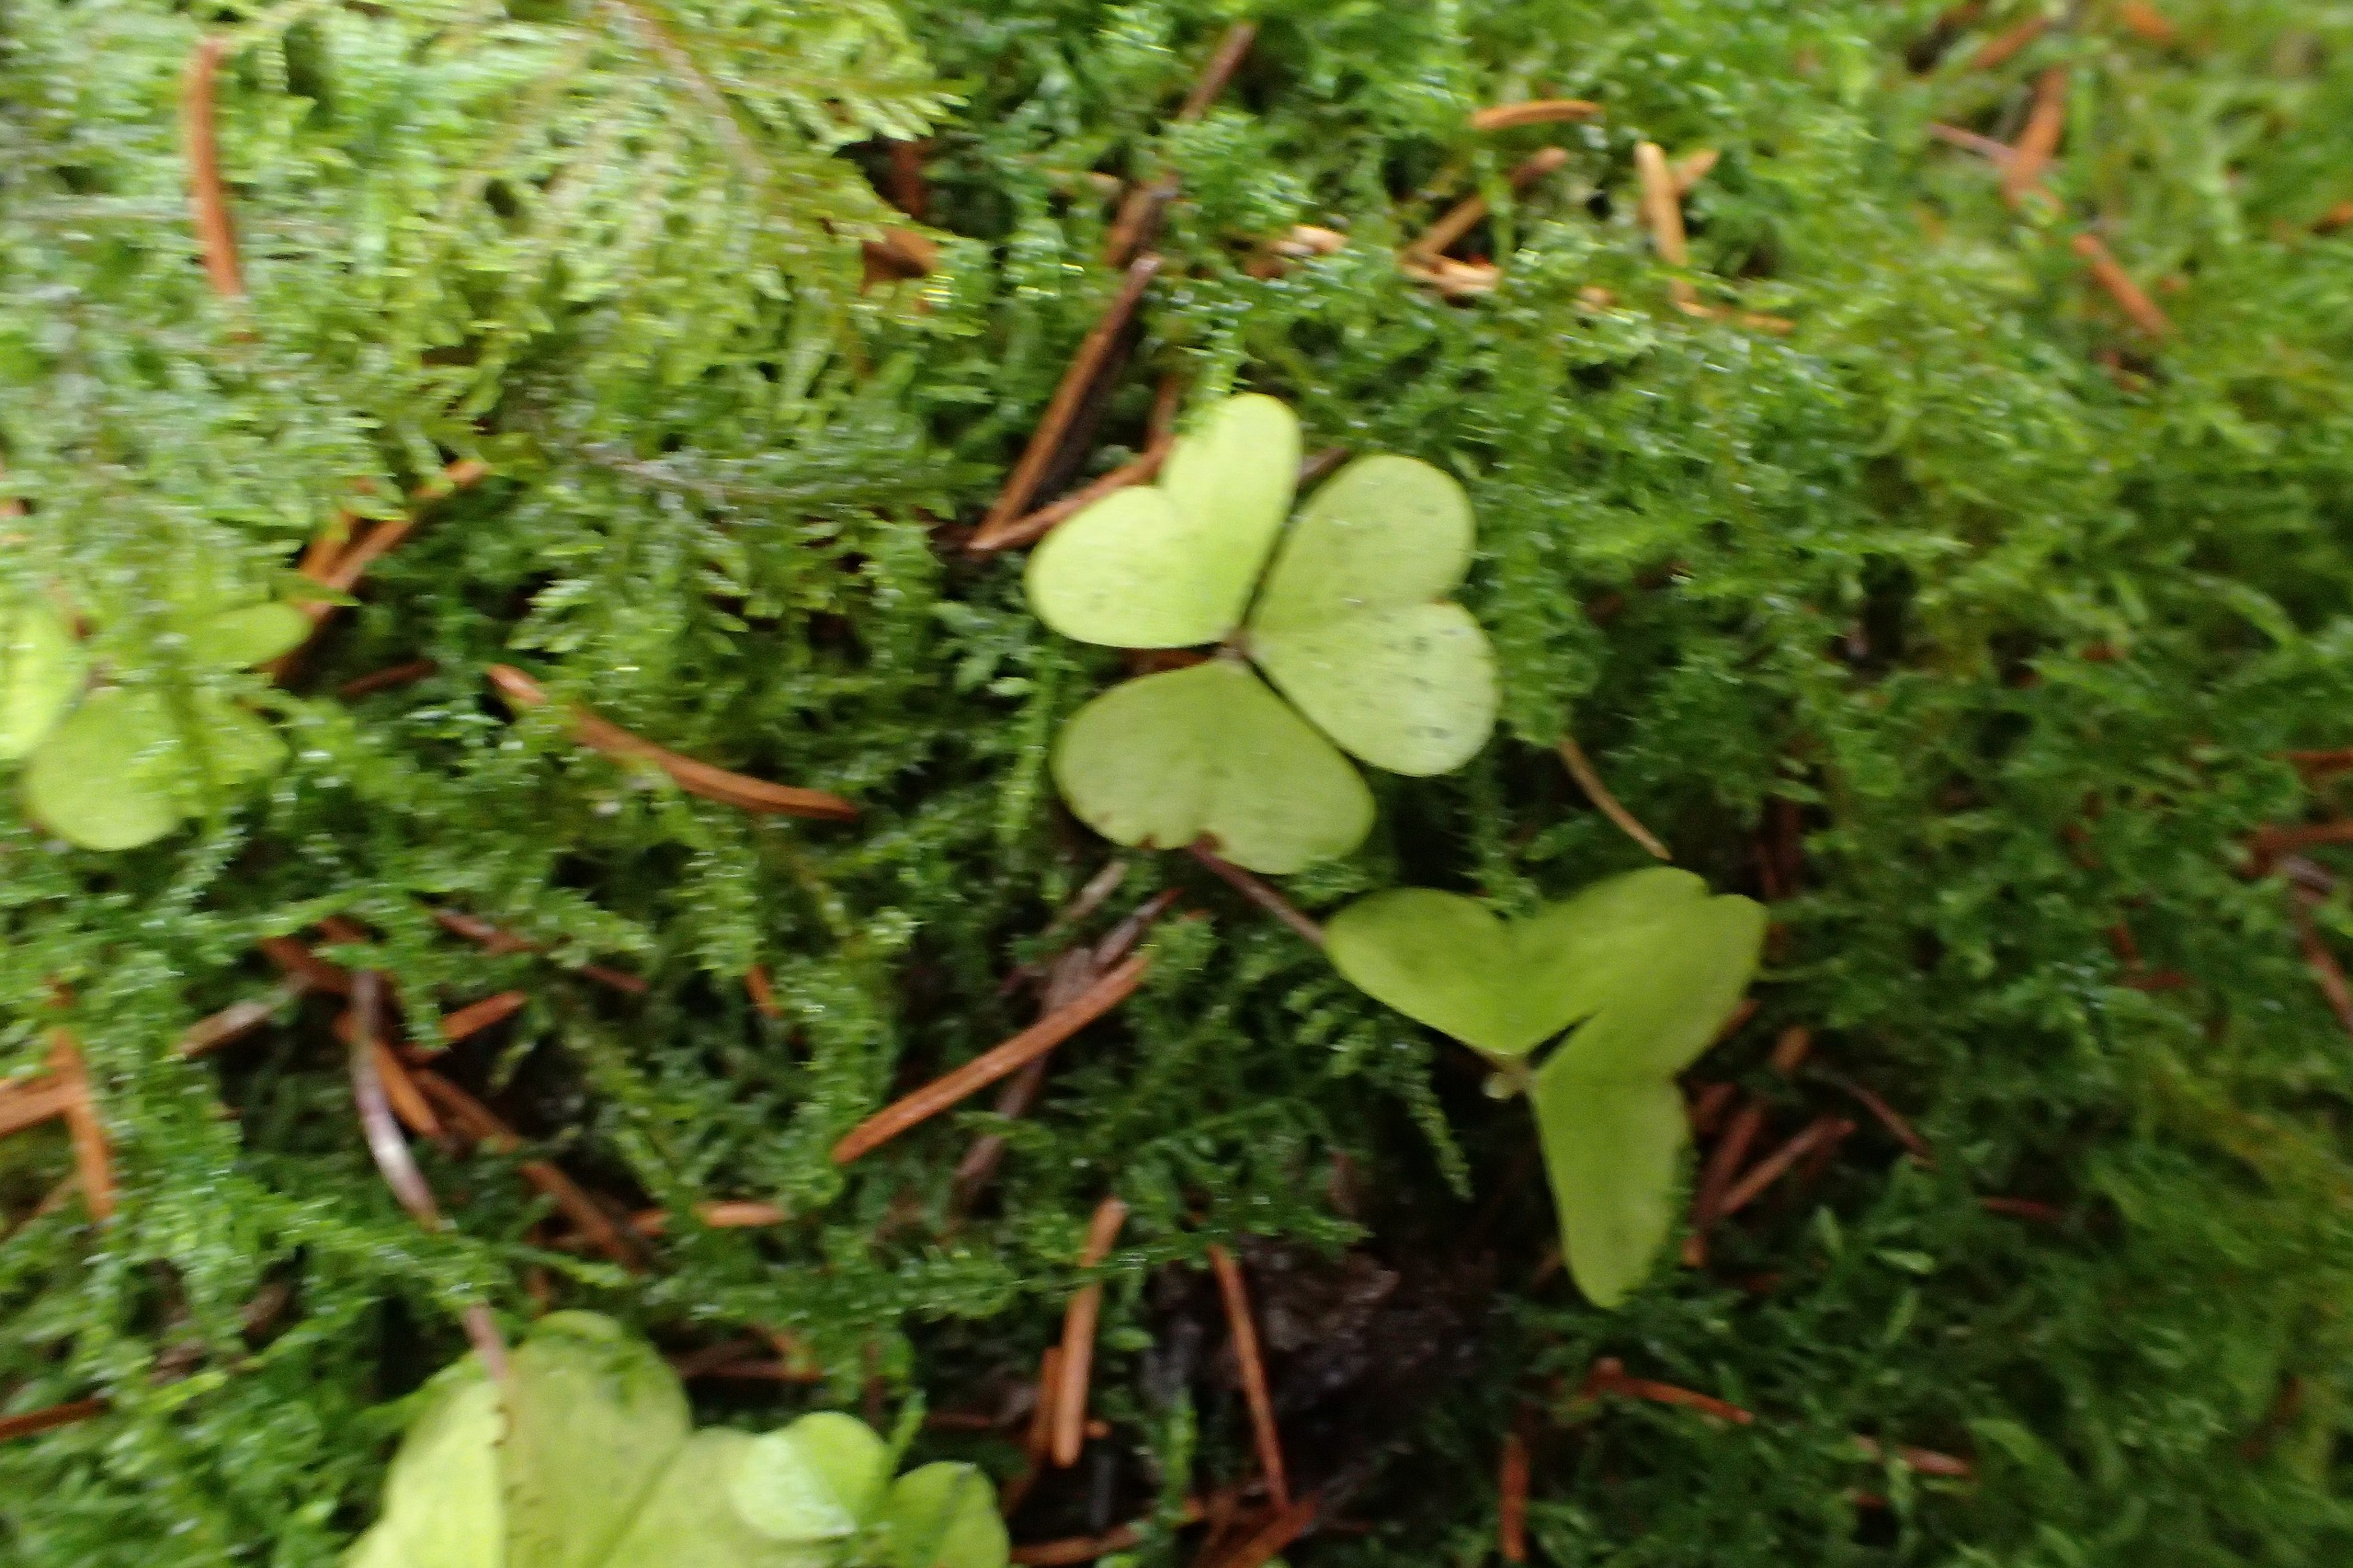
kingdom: Plantae
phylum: Tracheophyta
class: Magnoliopsida
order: Oxalidales
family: Oxalidaceae
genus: Oxalis
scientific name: Oxalis acetosella
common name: Skovsyre
